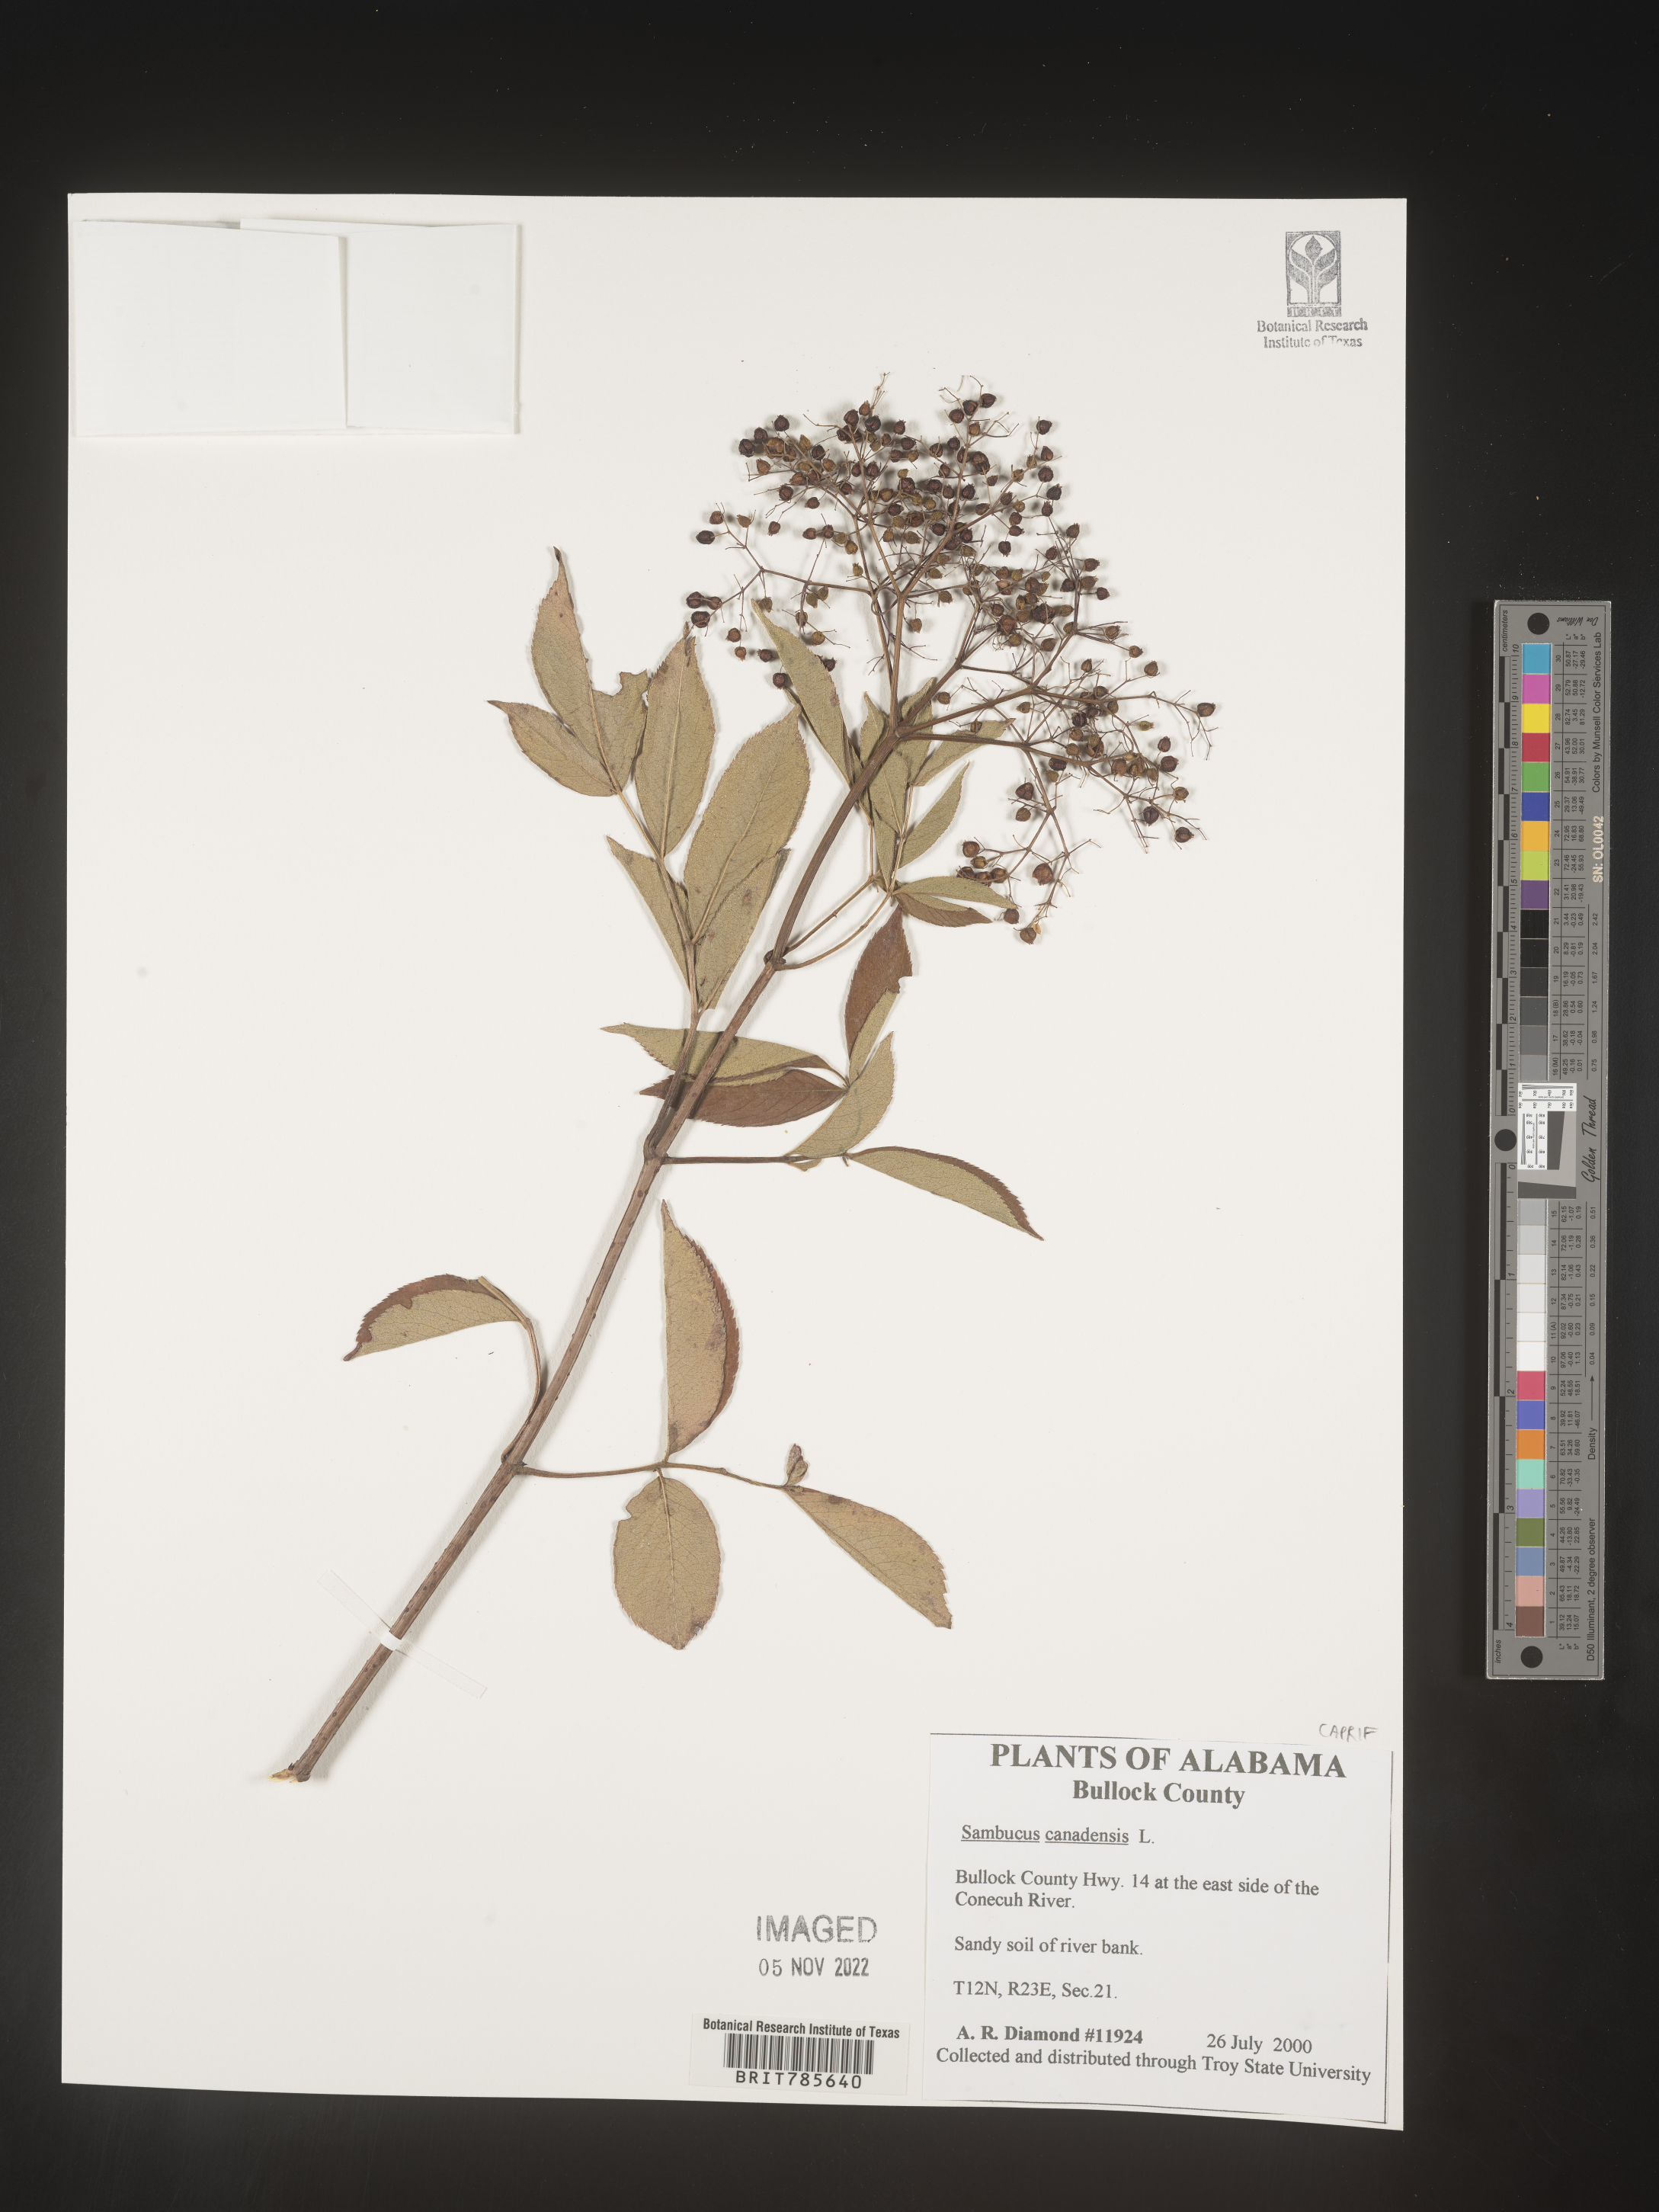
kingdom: Plantae
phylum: Tracheophyta
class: Magnoliopsida
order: Dipsacales
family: Viburnaceae
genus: Sambucus
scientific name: Sambucus canadensis
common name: American elder
